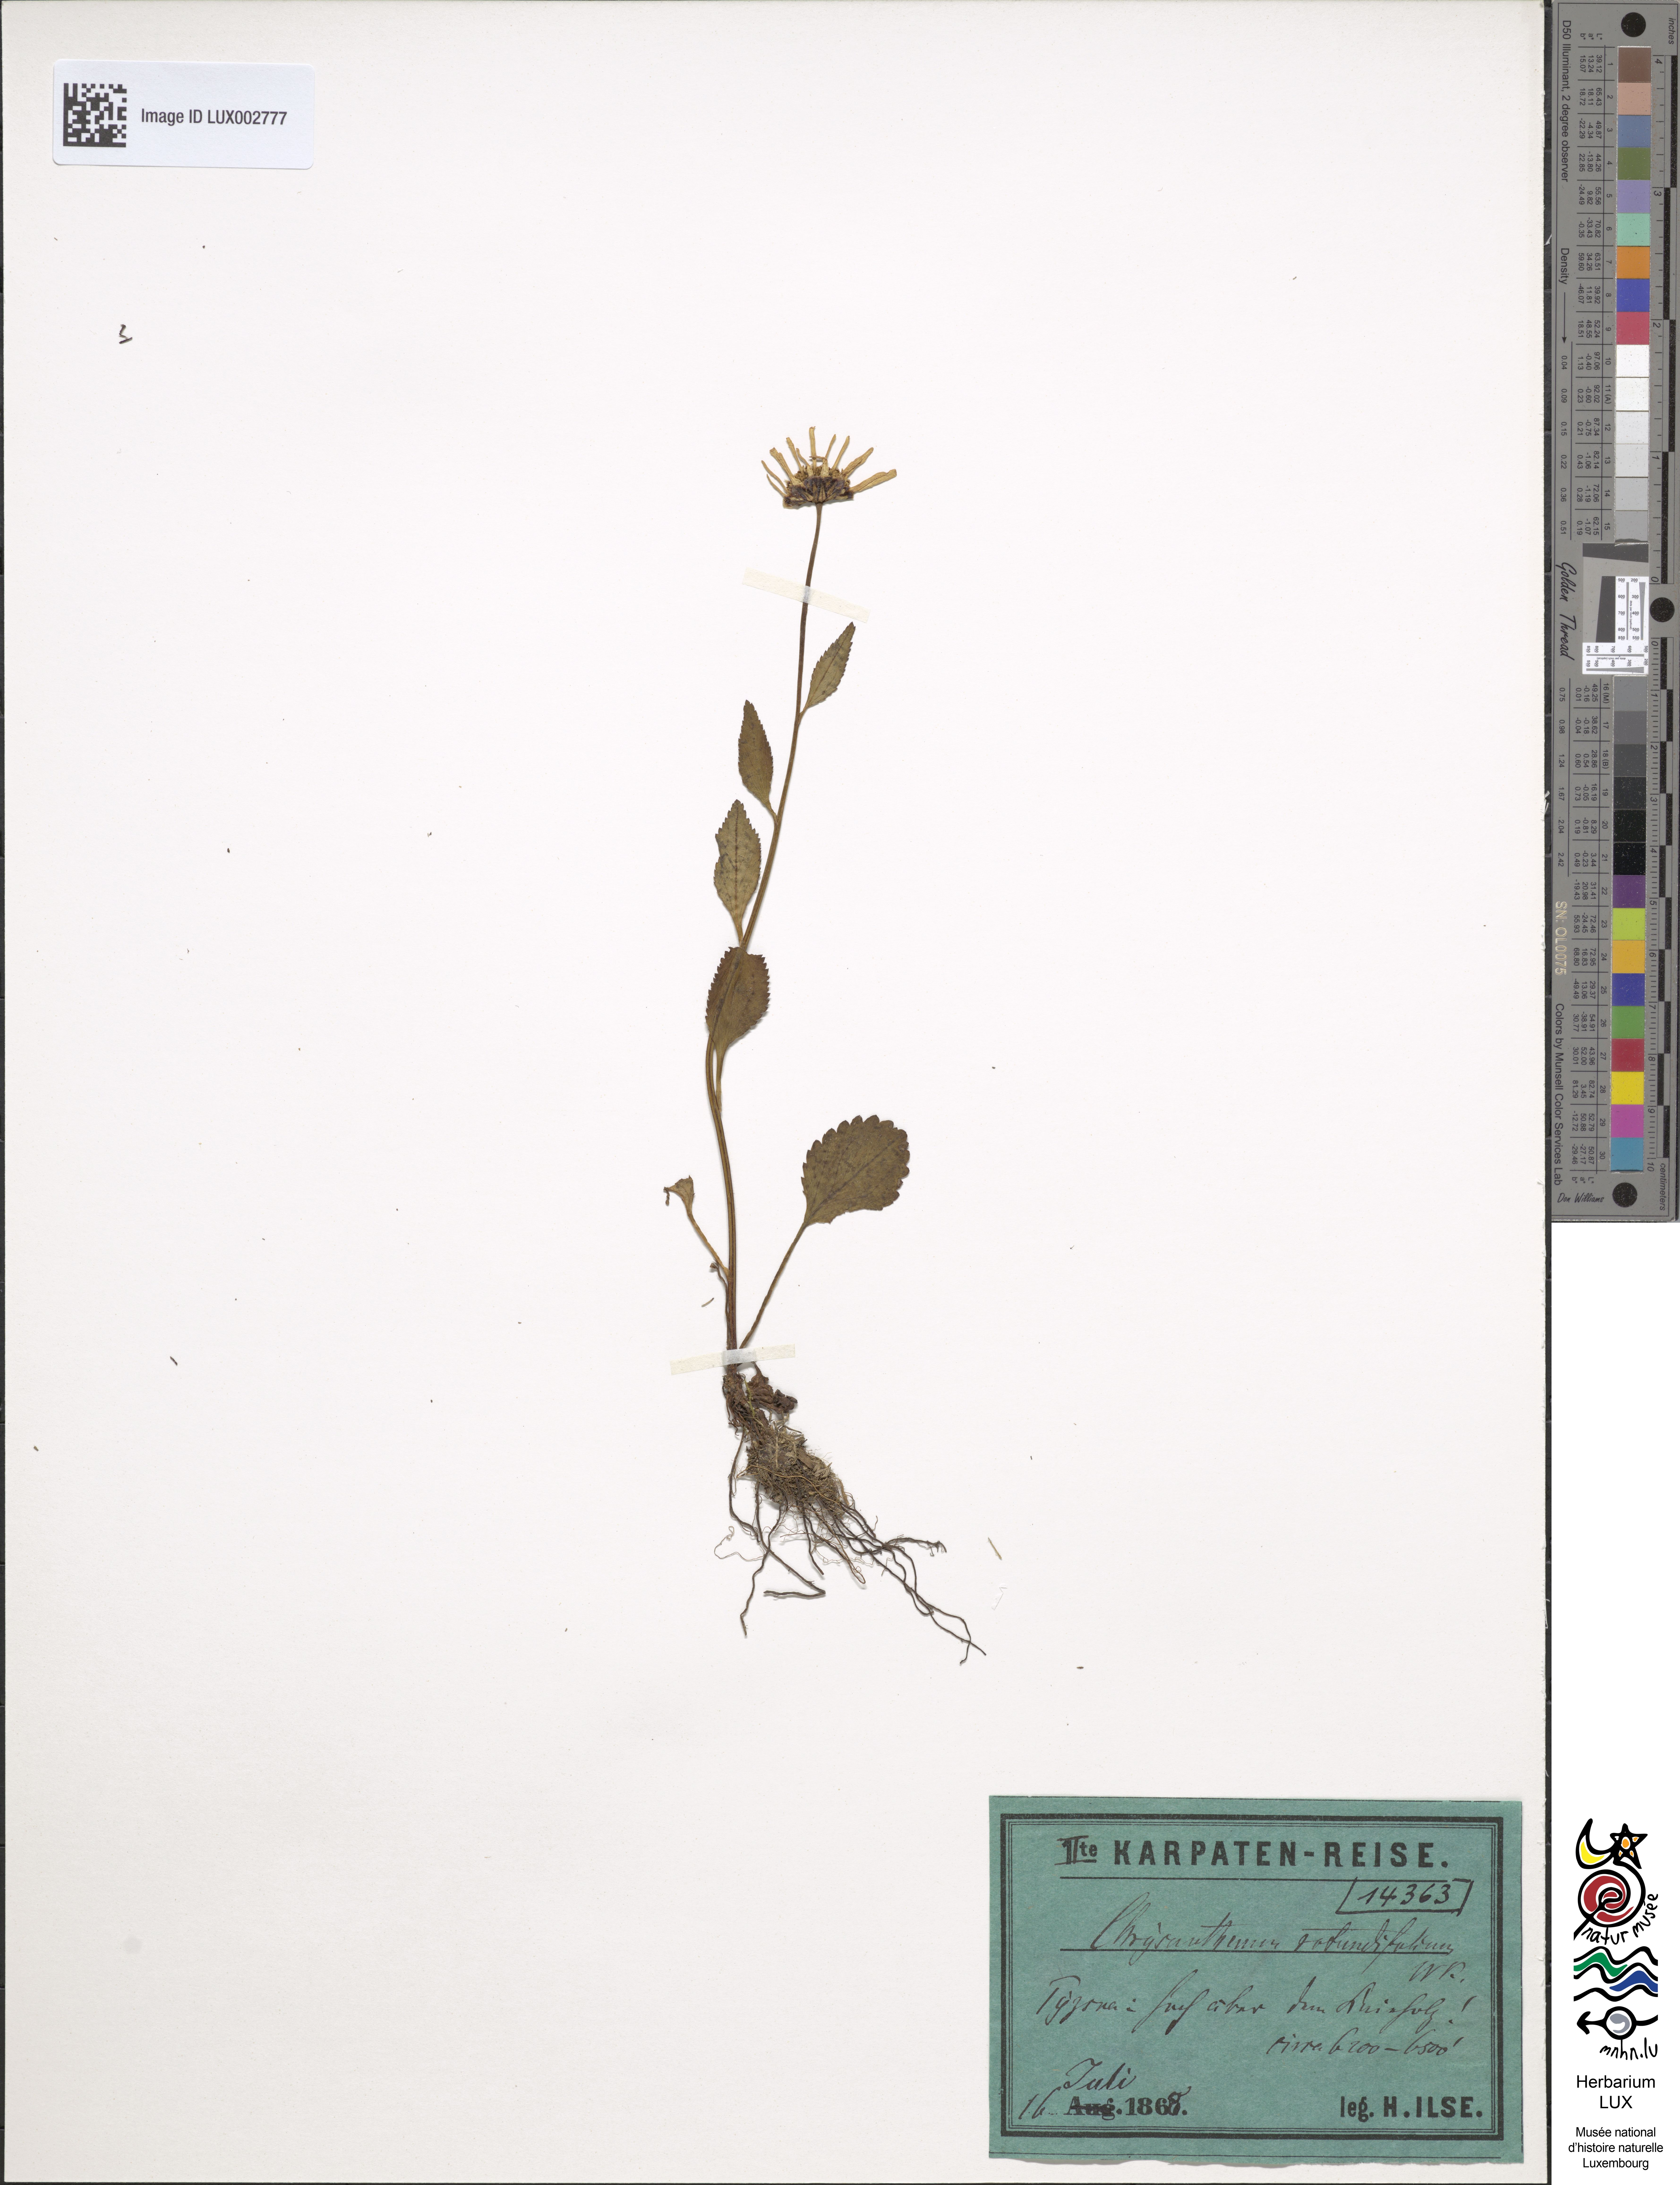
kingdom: Plantae
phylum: Tracheophyta
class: Magnoliopsida
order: Asterales
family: Asteraceae
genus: Leucanthemum
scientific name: Leucanthemum rotundifolium
